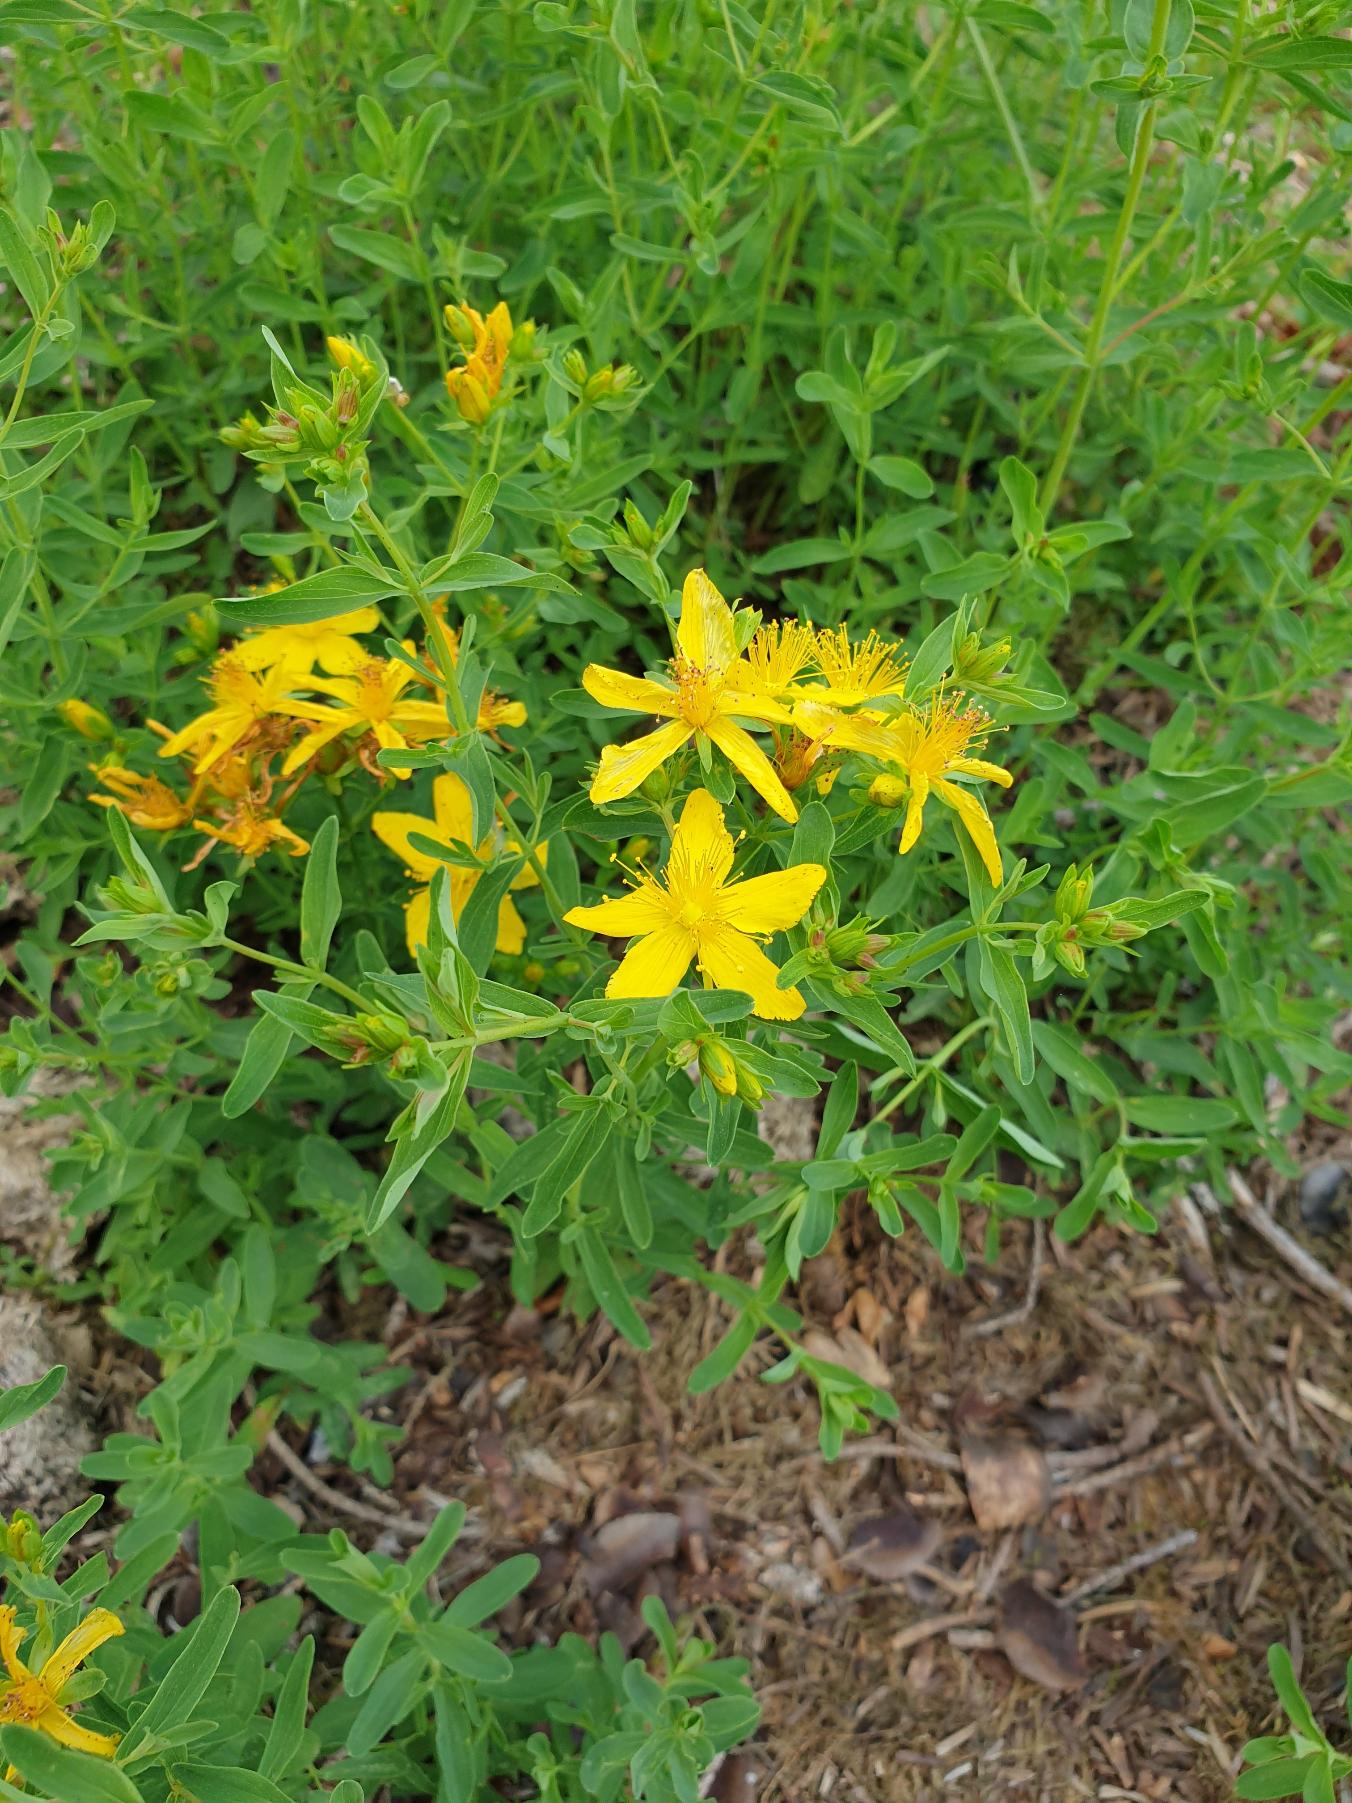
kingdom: Plantae
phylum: Tracheophyta
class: Magnoliopsida
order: Malpighiales
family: Hypericaceae
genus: Hypericum
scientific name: Hypericum perforatum
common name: Prikbladet perikon
